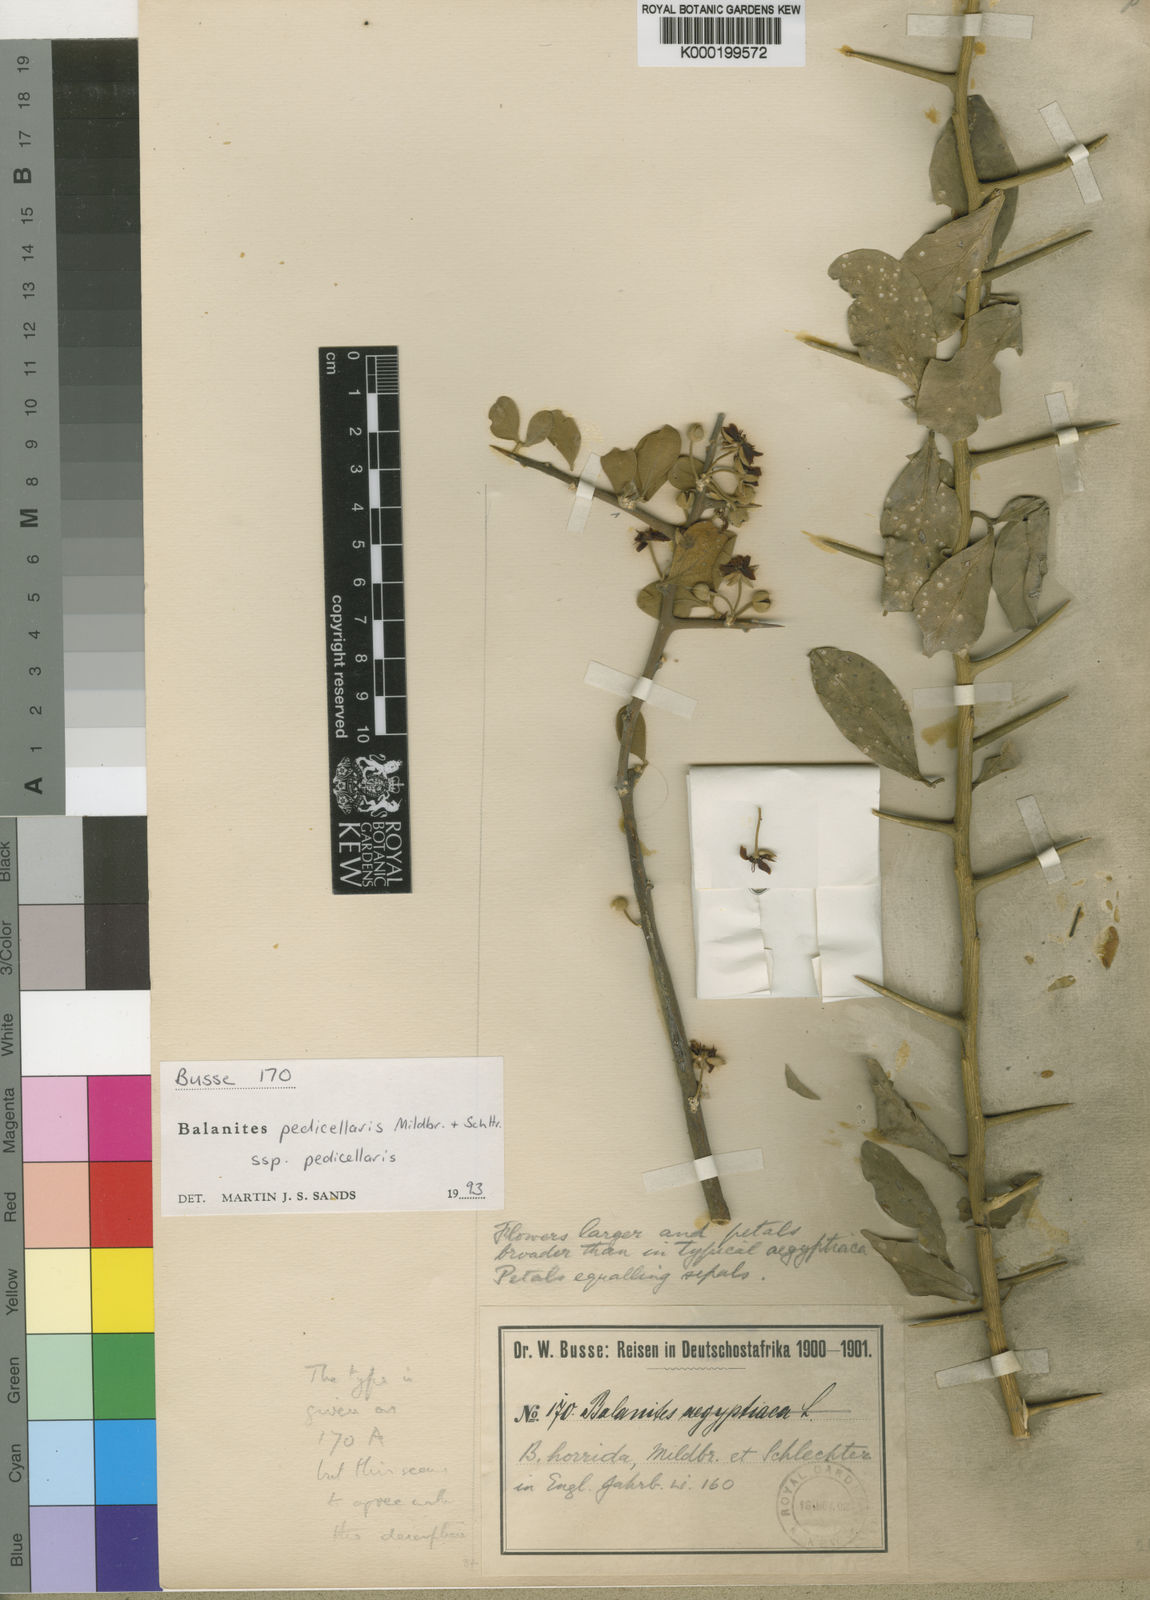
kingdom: Plantae
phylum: Tracheophyta
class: Magnoliopsida
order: Zygophyllales
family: Zygophyllaceae
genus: Balanites
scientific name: Balanites pedicellaris
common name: Small green-thorn
